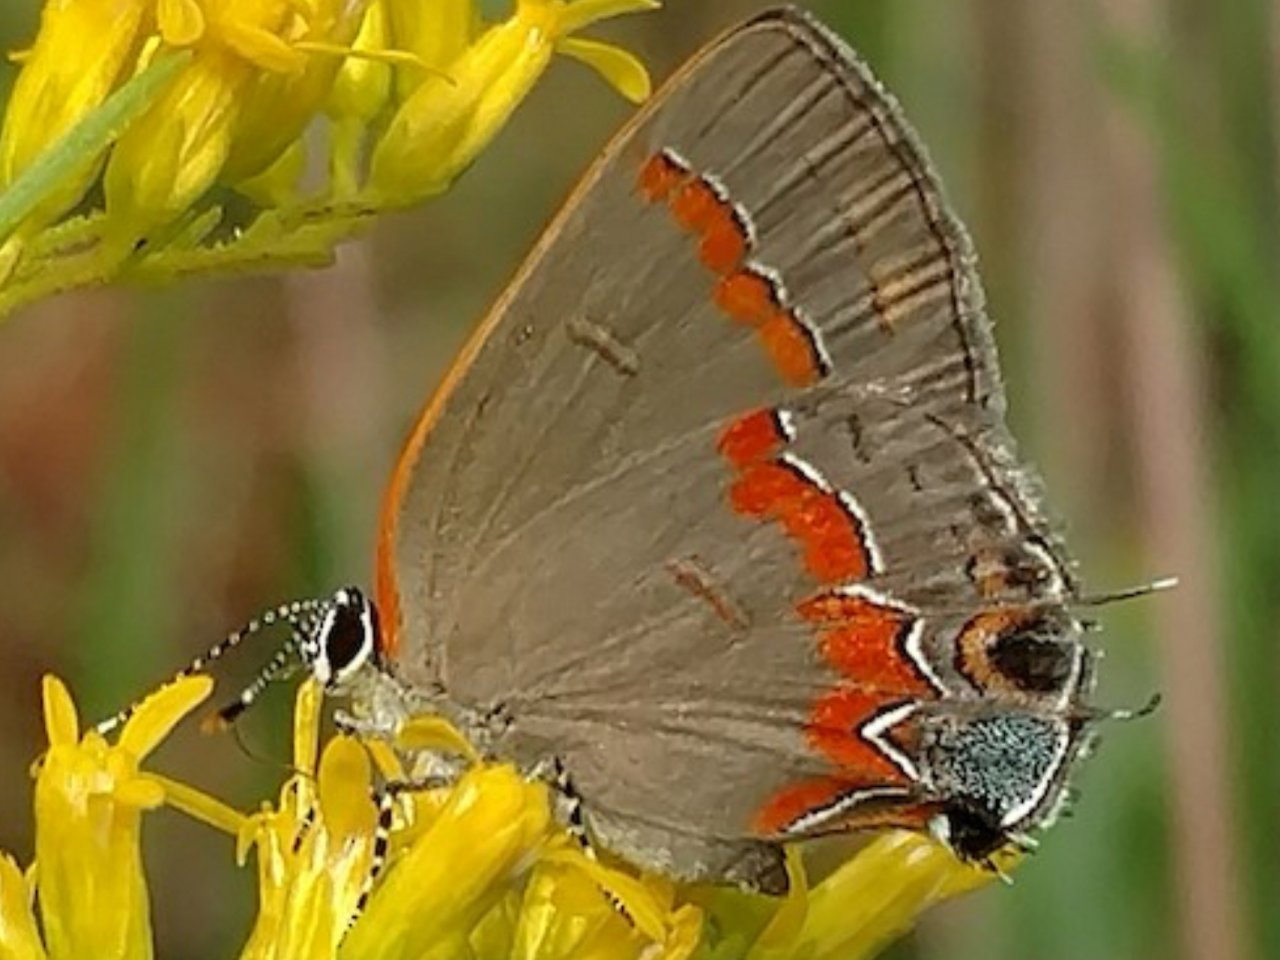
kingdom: Animalia
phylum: Arthropoda
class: Insecta
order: Lepidoptera
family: Lycaenidae
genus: Calycopis
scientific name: Calycopis cecrops
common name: Red-banded Hairstreak
